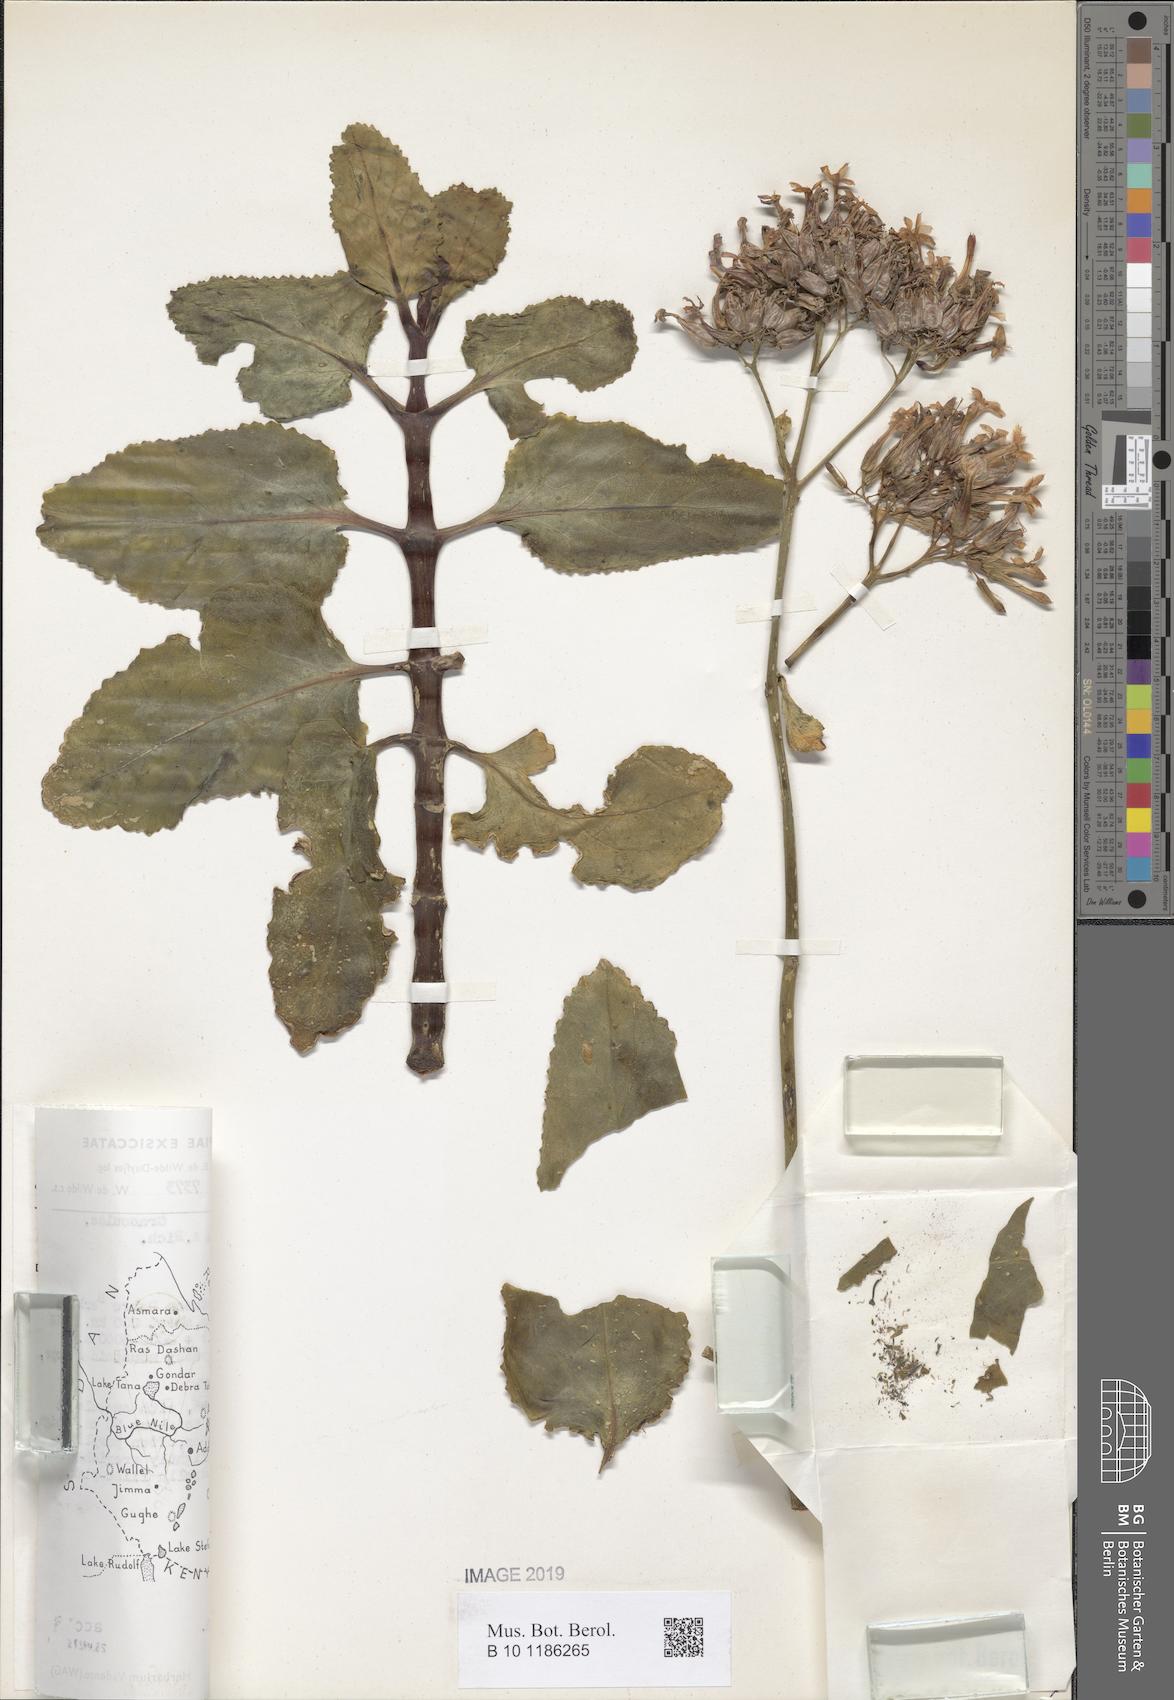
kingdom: Plantae
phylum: Tracheophyta
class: Magnoliopsida
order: Saxifragales
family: Crassulaceae
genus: Kalanchoe
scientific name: Kalanchoe petitiana
